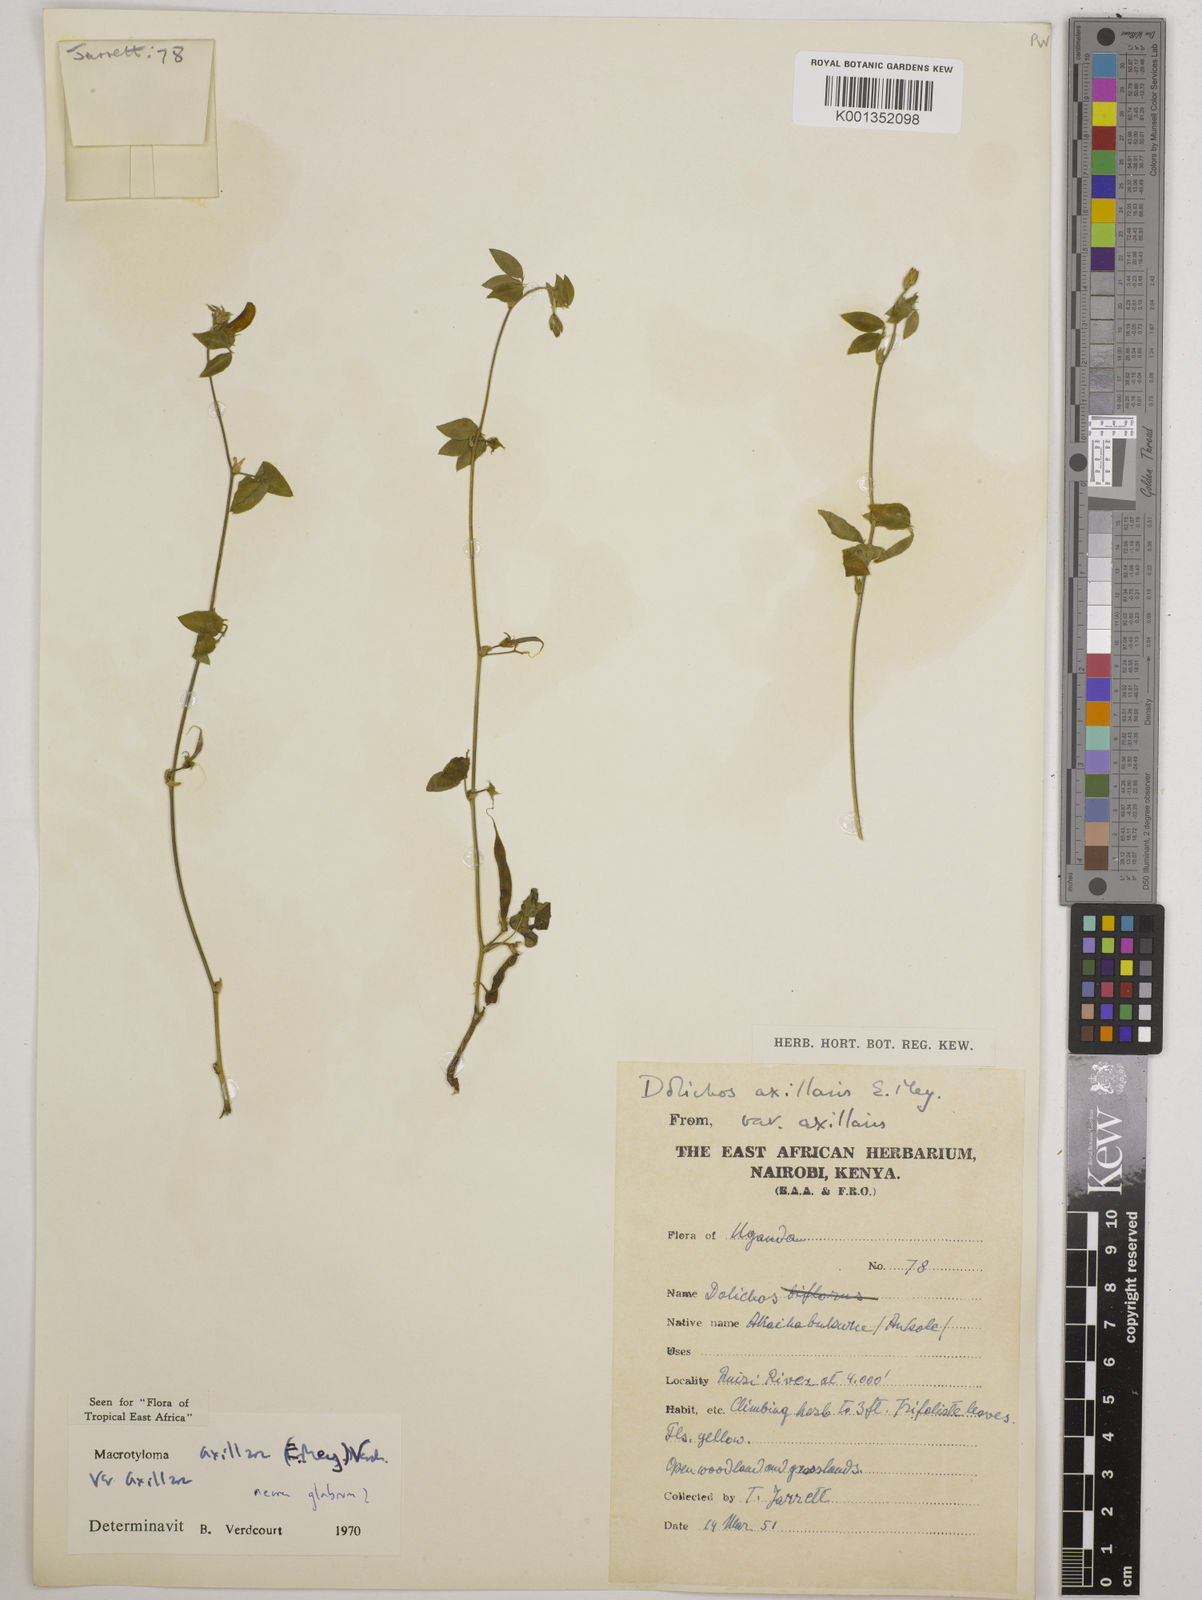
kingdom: Plantae
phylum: Tracheophyta
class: Magnoliopsida
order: Fabales
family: Fabaceae
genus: Macrotyloma
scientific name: Macrotyloma axillare
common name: Perennial horsegram
